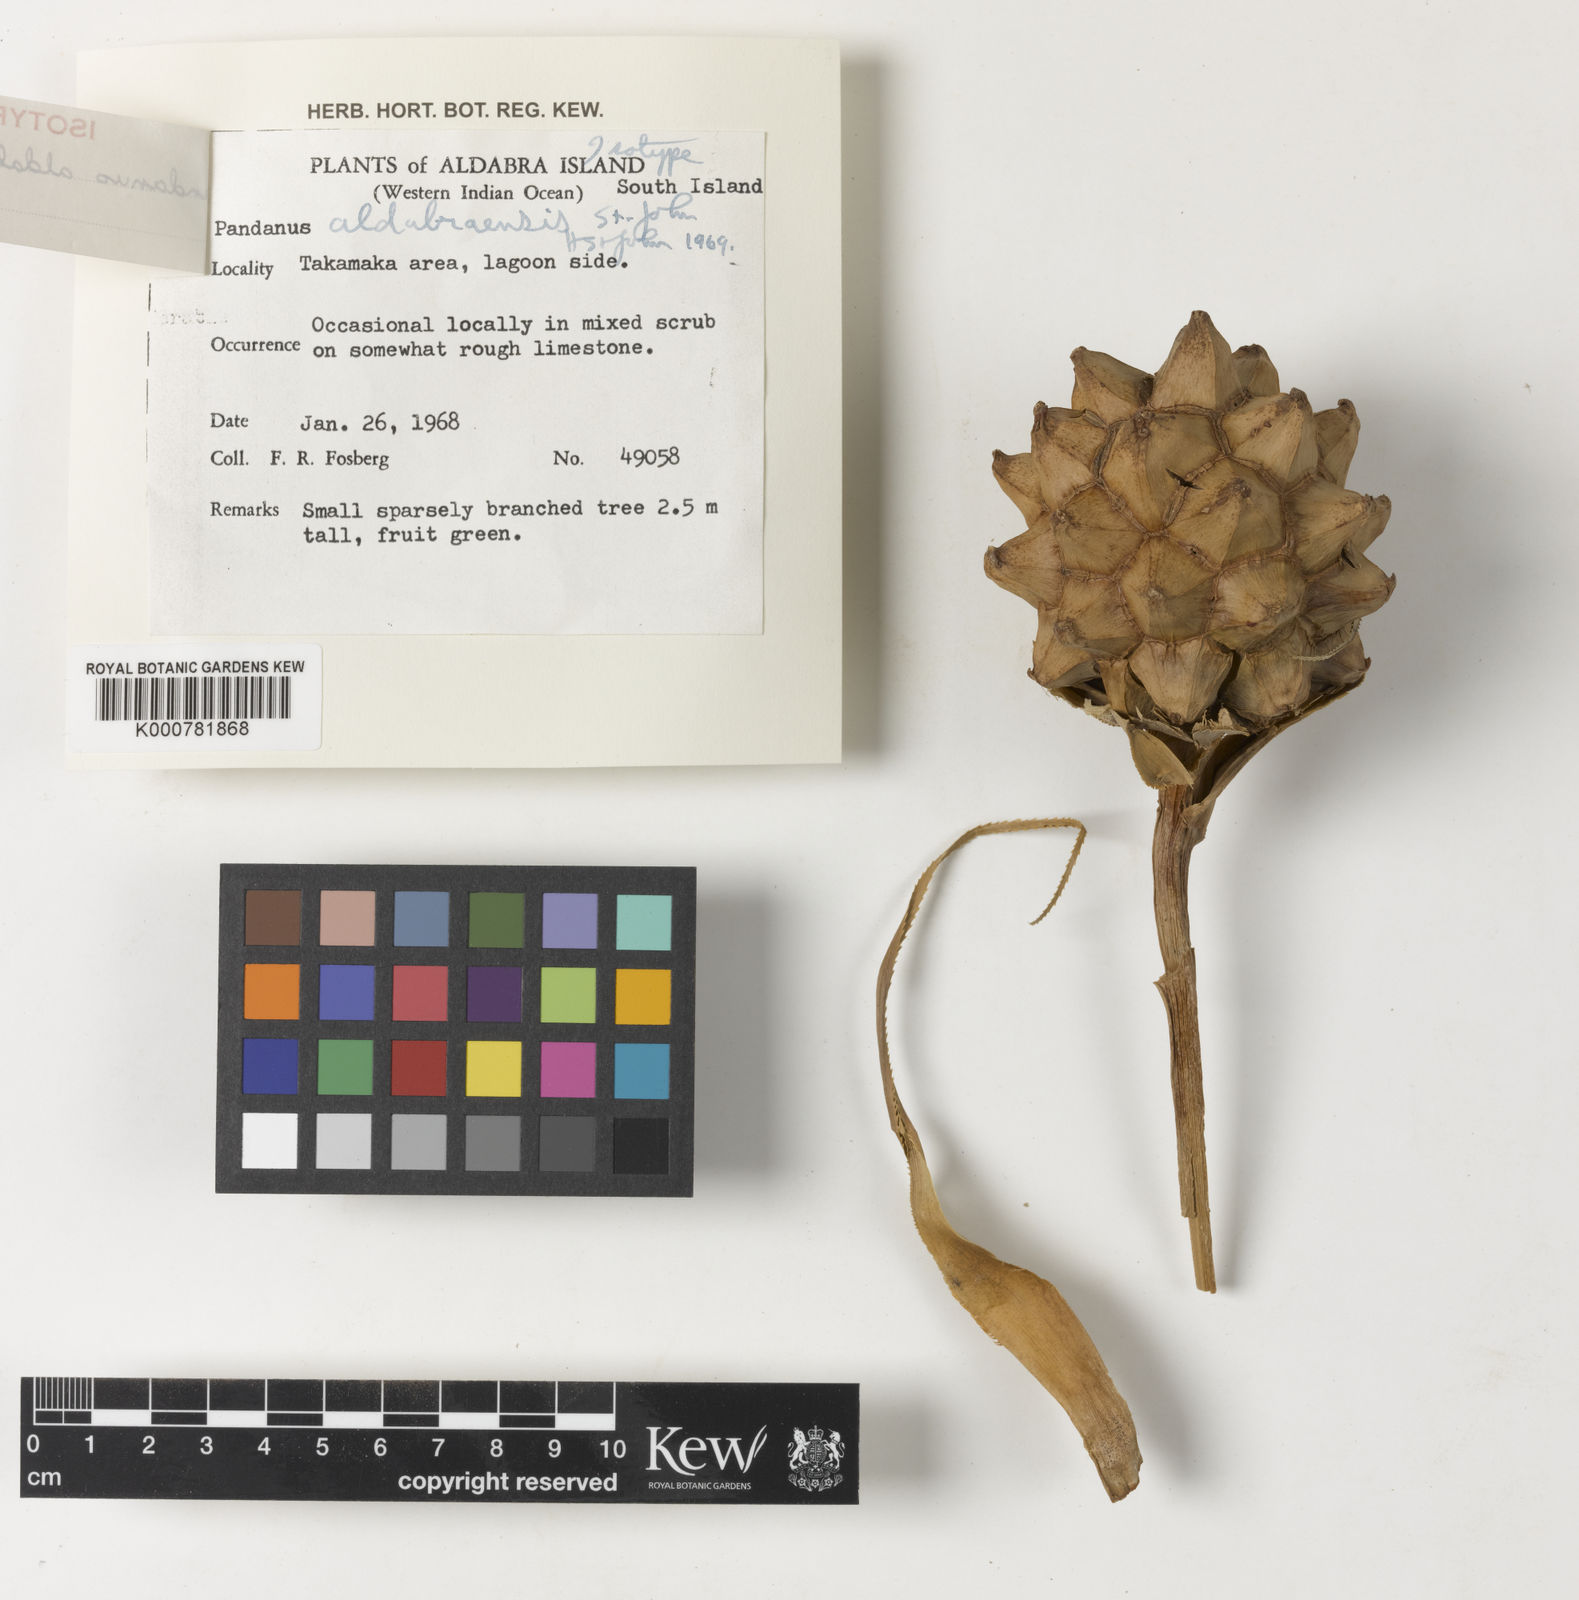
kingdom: Plantae
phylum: Tracheophyta
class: Liliopsida
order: Pandanales
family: Pandanaceae
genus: Pandanus
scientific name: Pandanus aldabraensis
